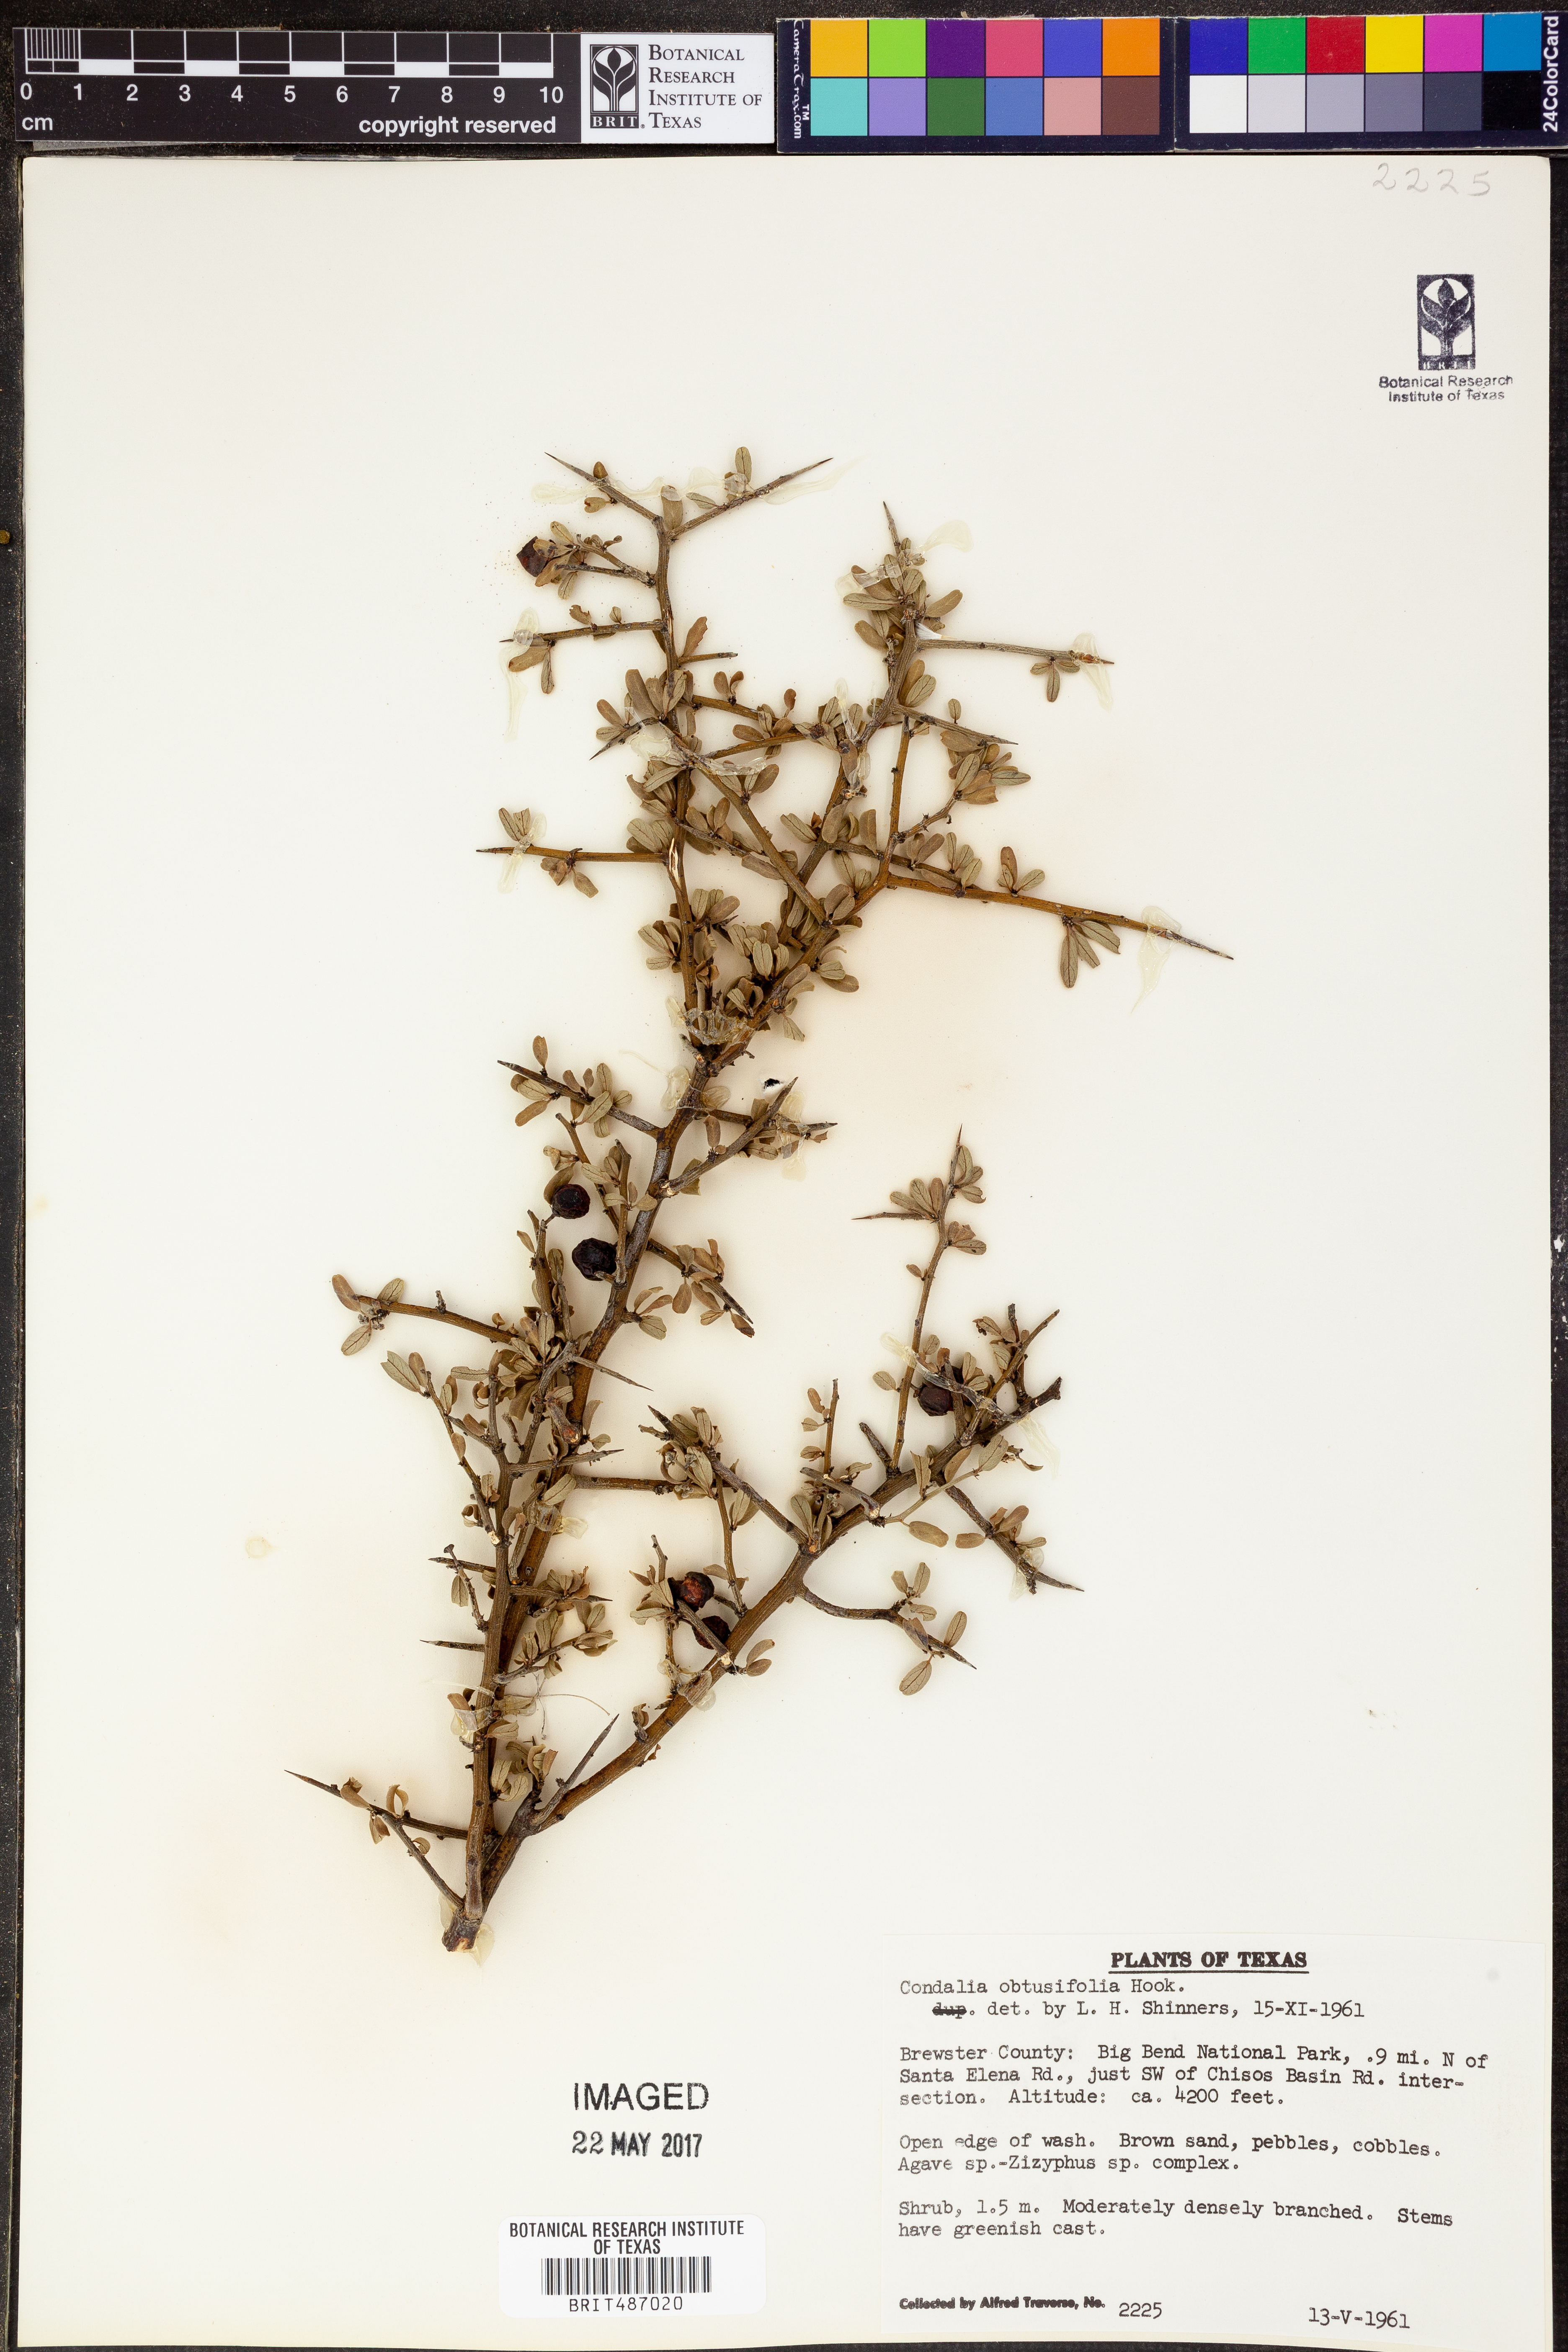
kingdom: Plantae
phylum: Tracheophyta
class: Magnoliopsida
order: Rosales
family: Rhamnaceae
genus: Sarcomphalus
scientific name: Sarcomphalus obtusifolius
